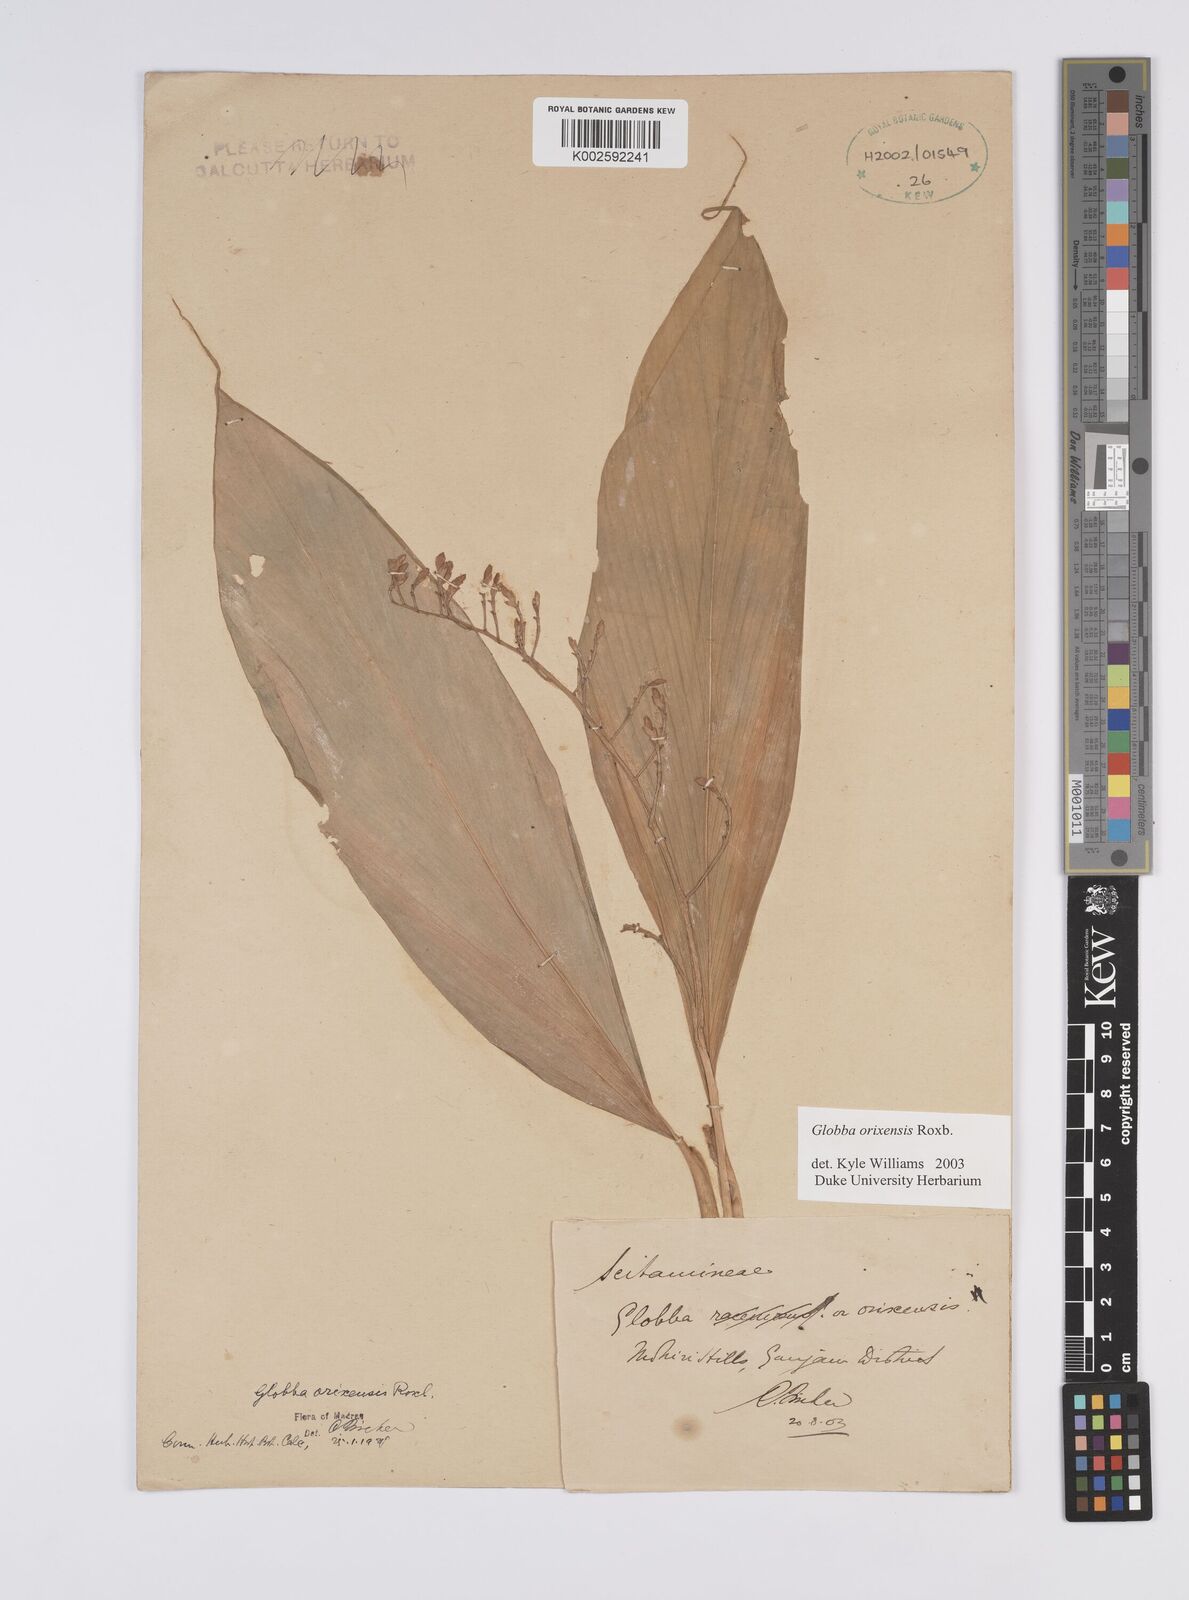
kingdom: Plantae
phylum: Tracheophyta
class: Liliopsida
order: Zingiberales
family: Zingiberaceae
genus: Globba
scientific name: Globba orixensis
